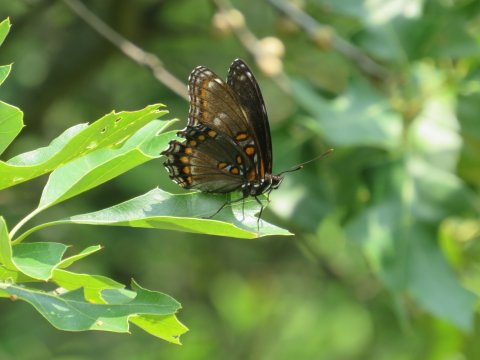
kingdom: Animalia
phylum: Arthropoda
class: Insecta
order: Lepidoptera
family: Nymphalidae
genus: Limenitis
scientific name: Limenitis arthemis
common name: Red-spotted Admiral
